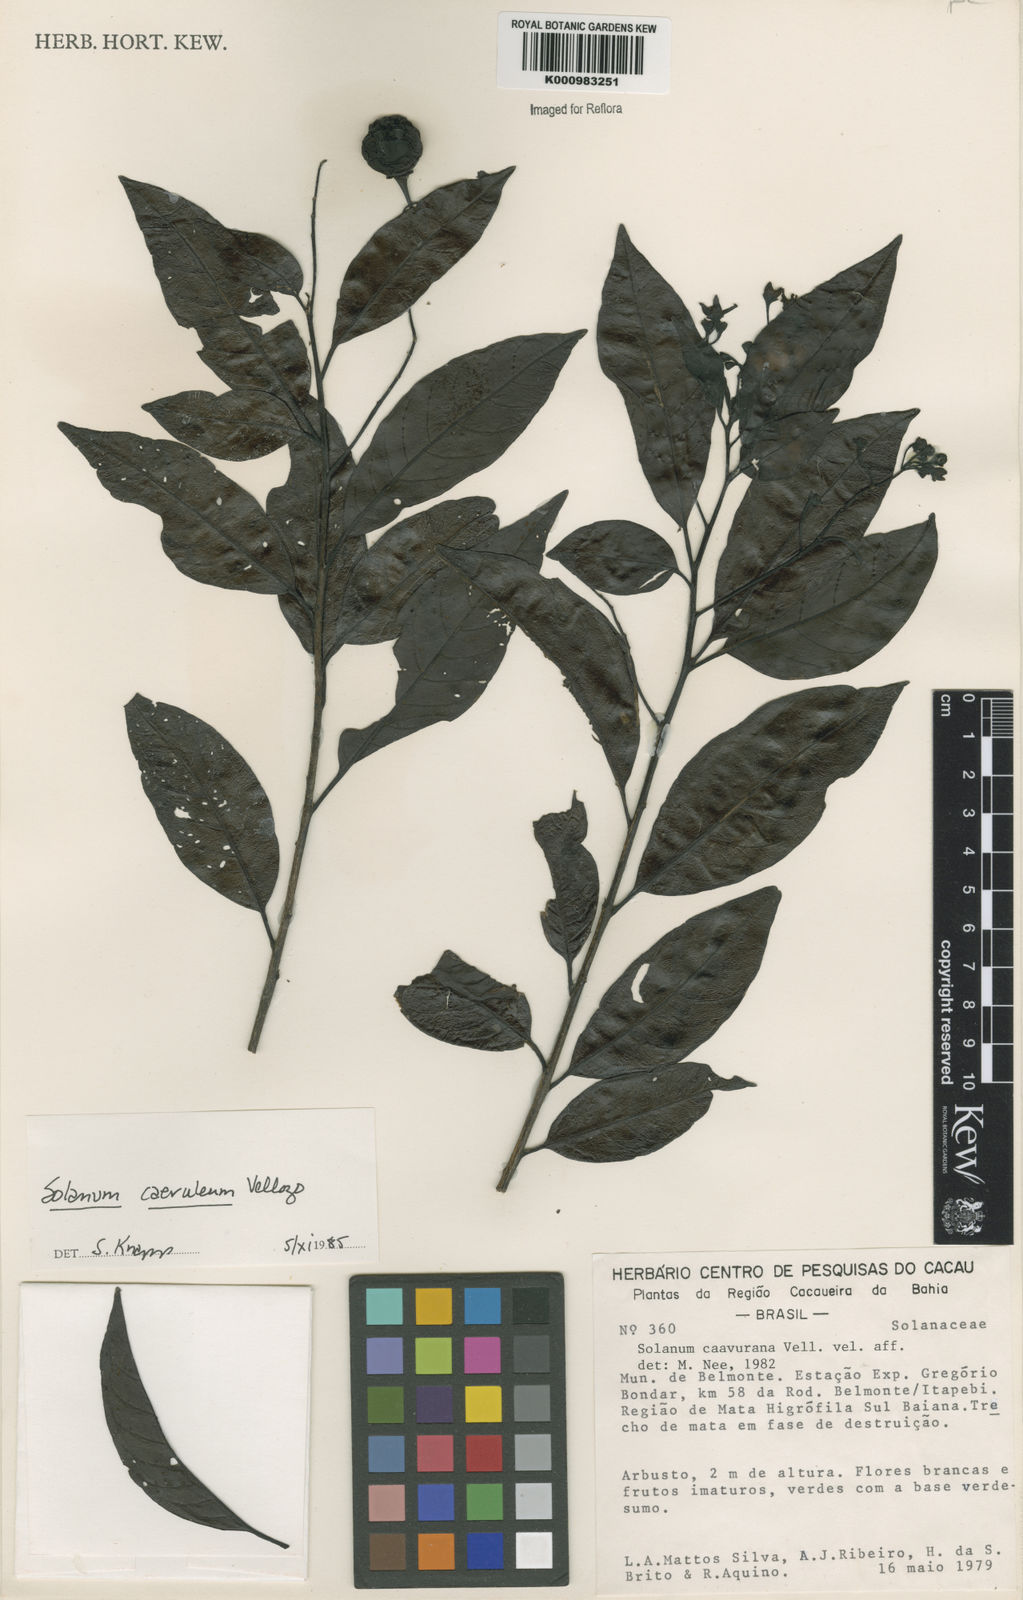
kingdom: Plantae
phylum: Tracheophyta
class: Magnoliopsida
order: Solanales
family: Solanaceae
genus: Solanum
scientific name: Solanum campaniforme
